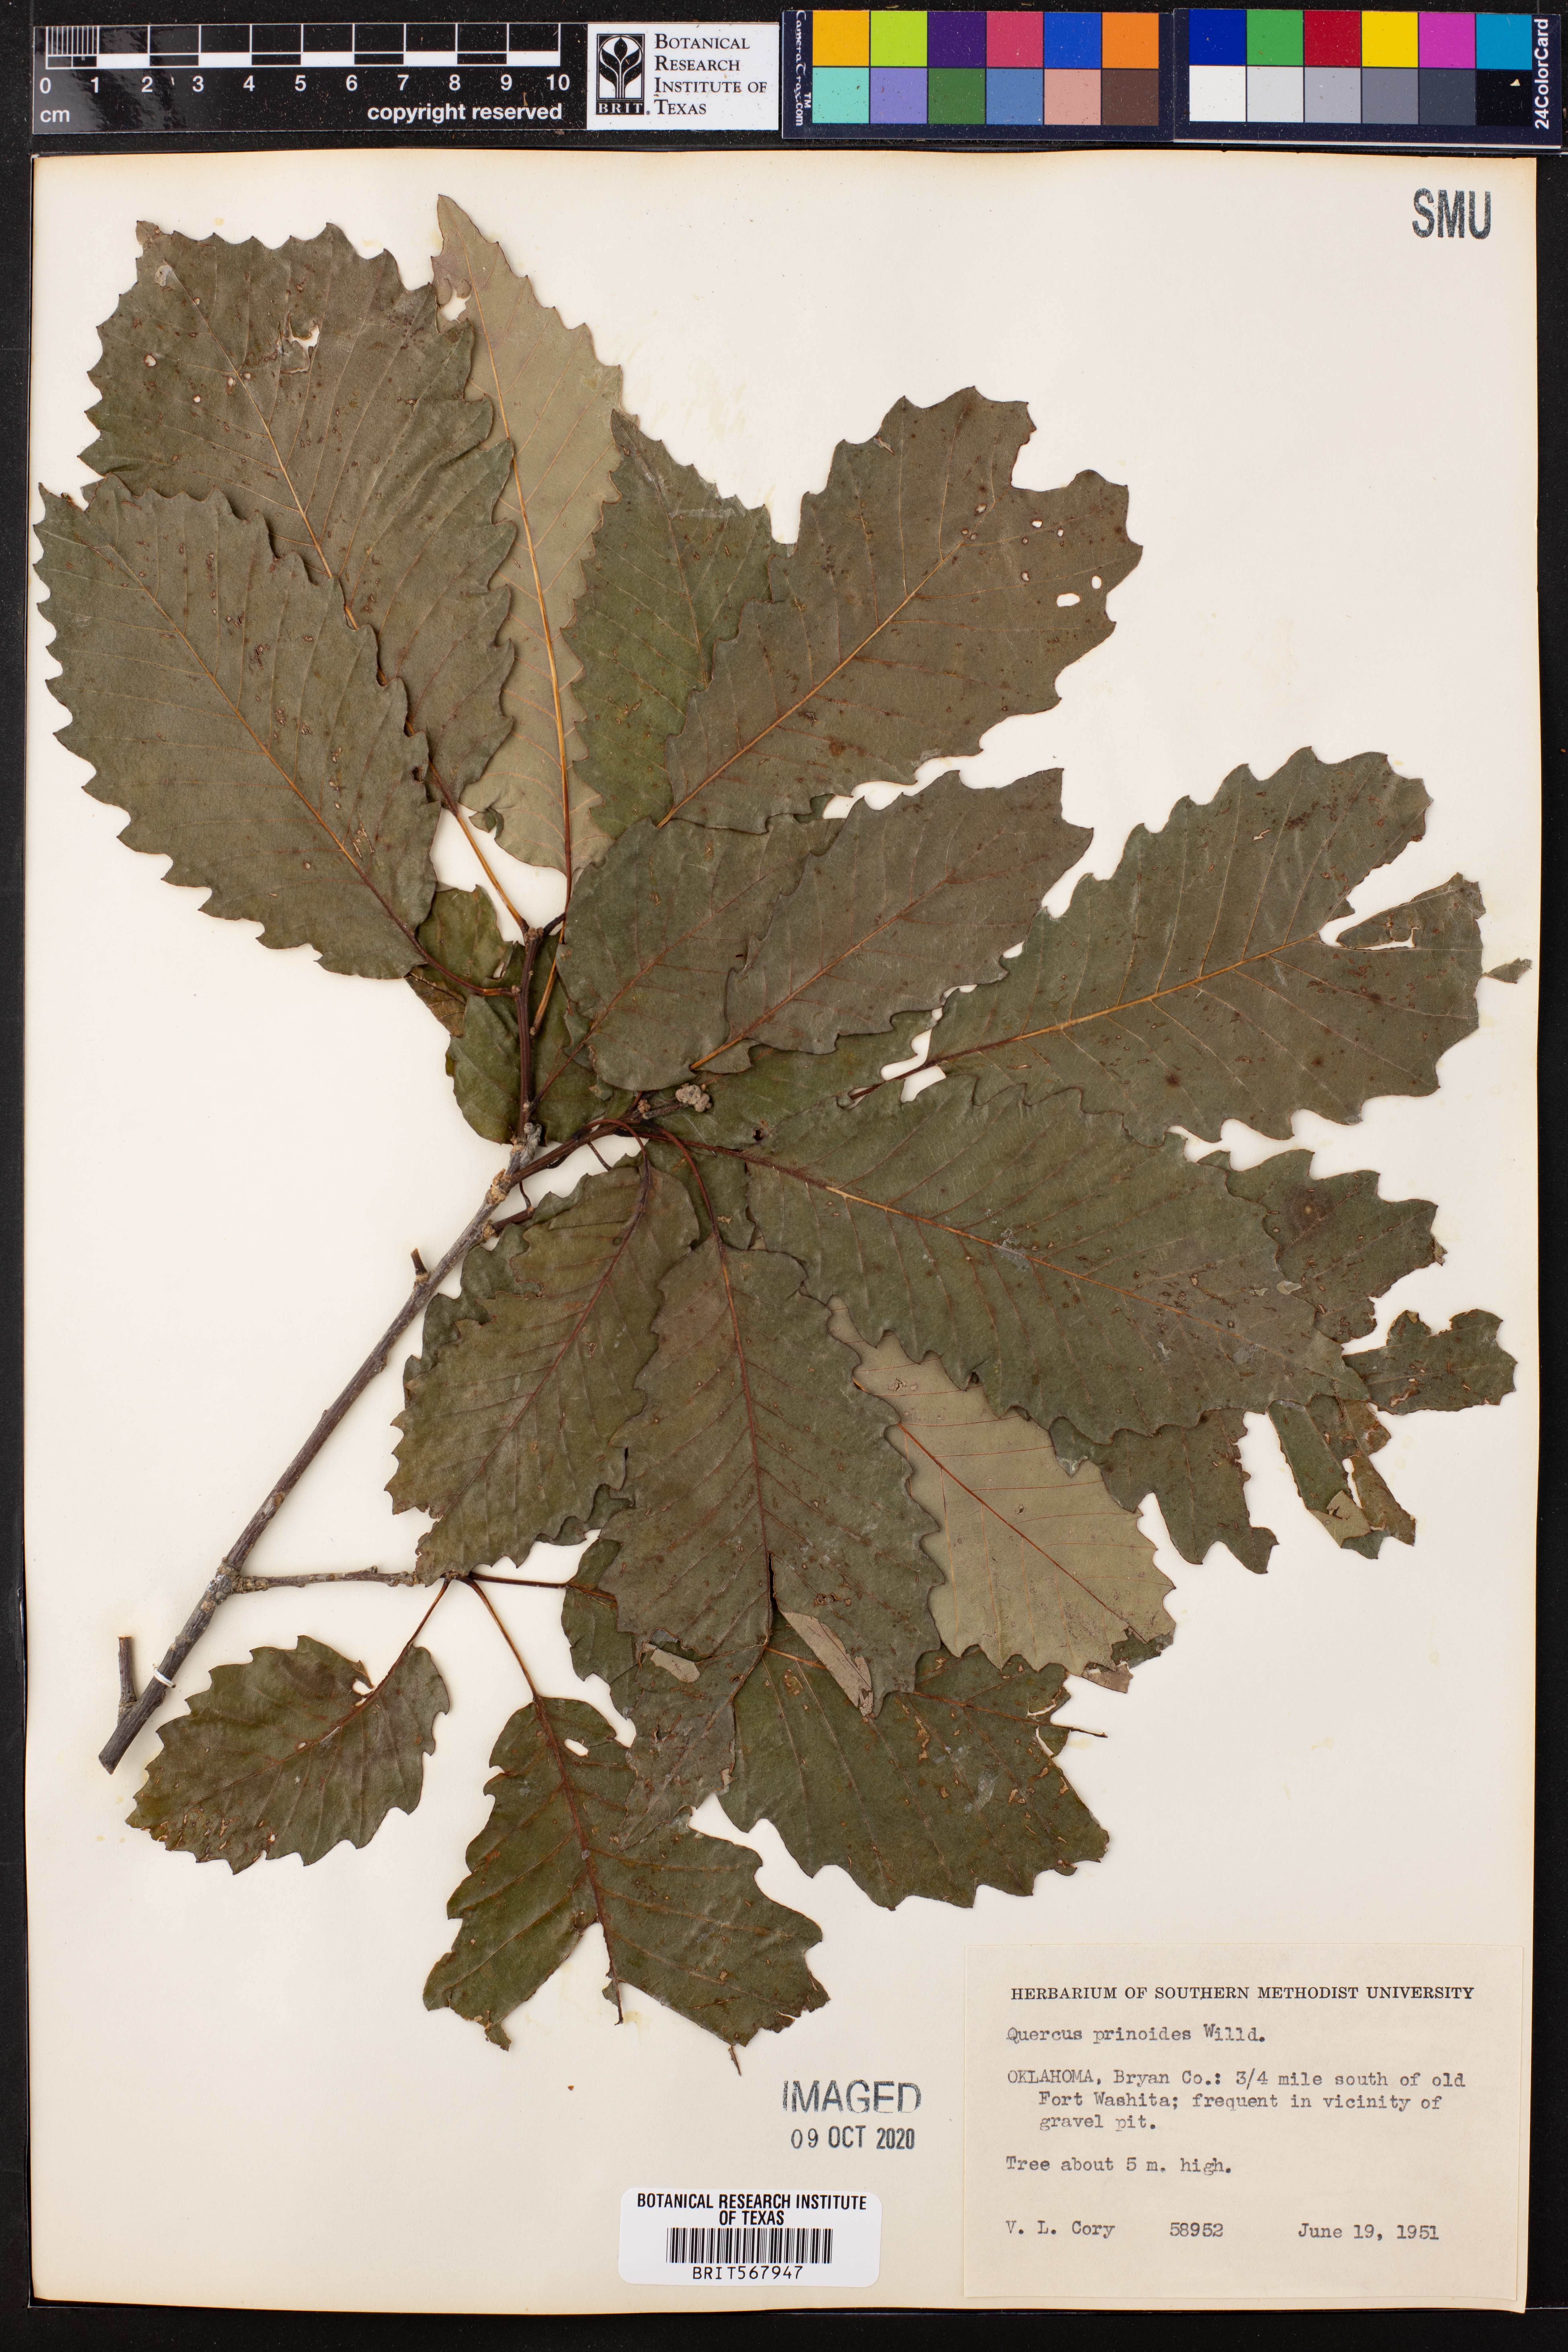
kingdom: Plantae
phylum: Tracheophyta
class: Magnoliopsida
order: Fagales
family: Fagaceae
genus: Quercus
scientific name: Quercus prinoides
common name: Dwarf chinkapin oak
